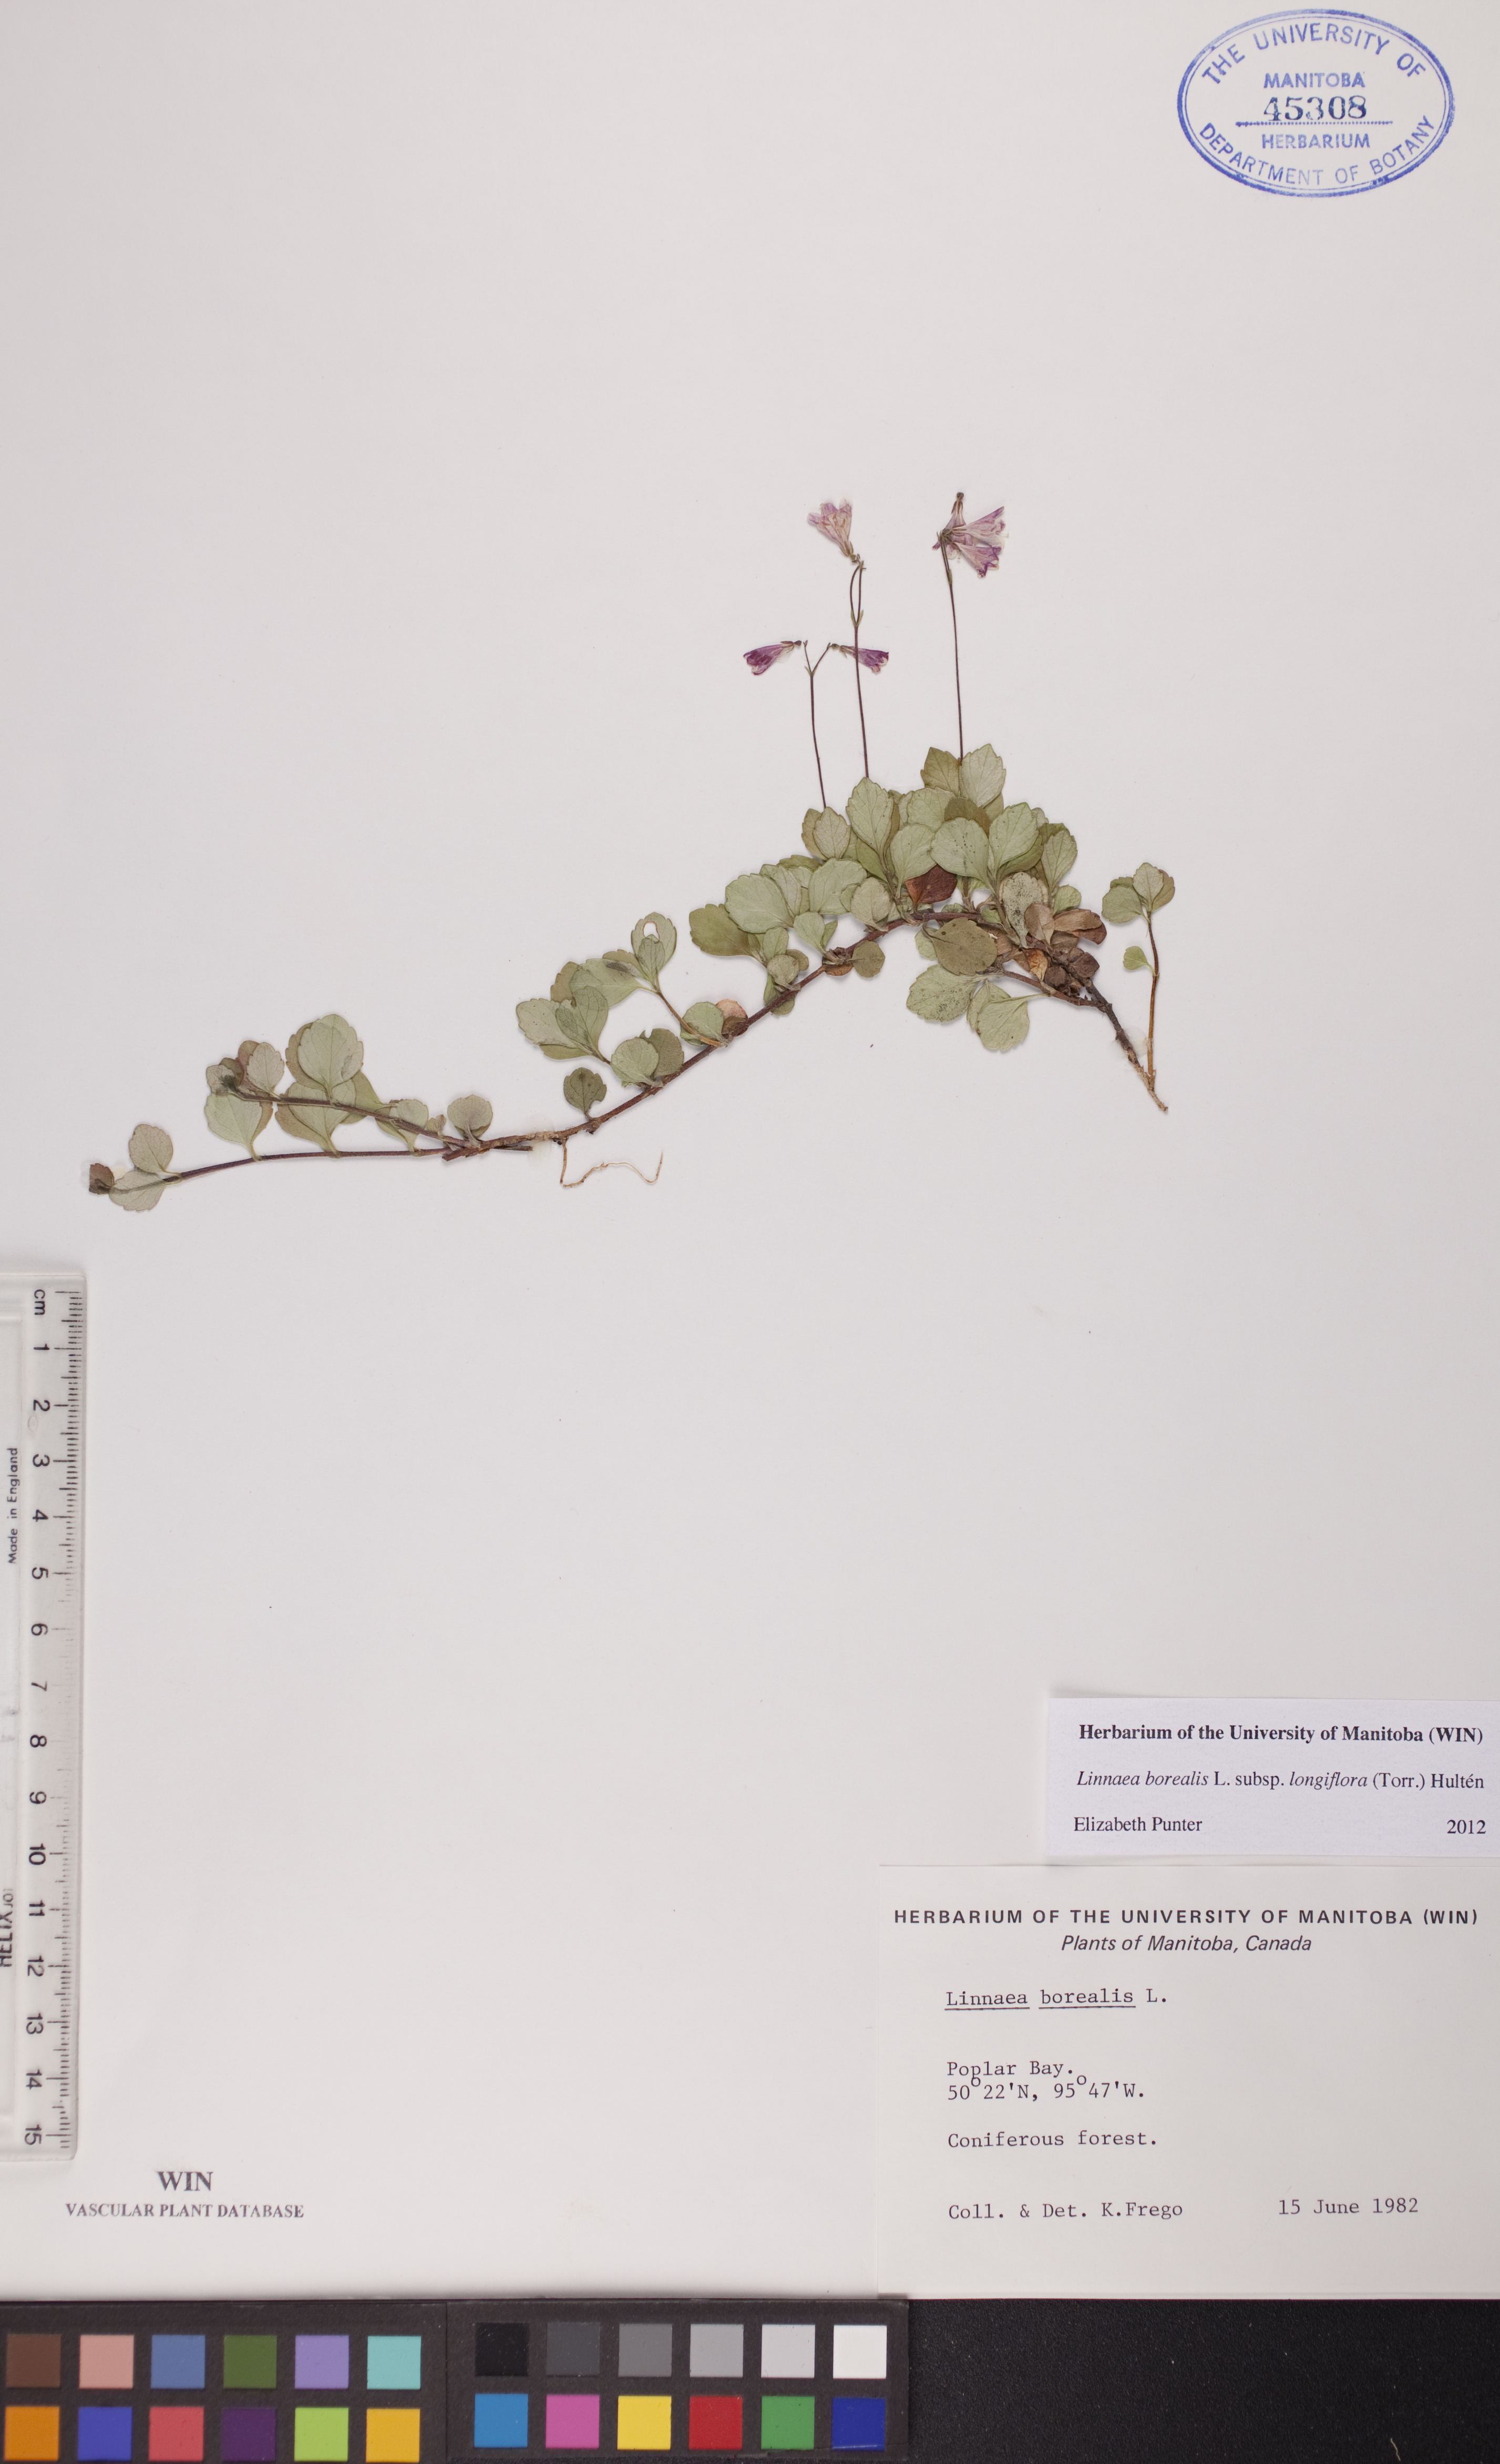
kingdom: Plantae
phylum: Tracheophyta
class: Magnoliopsida
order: Dipsacales
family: Caprifoliaceae
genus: Linnaea
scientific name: Linnaea borealis
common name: Twinflower
